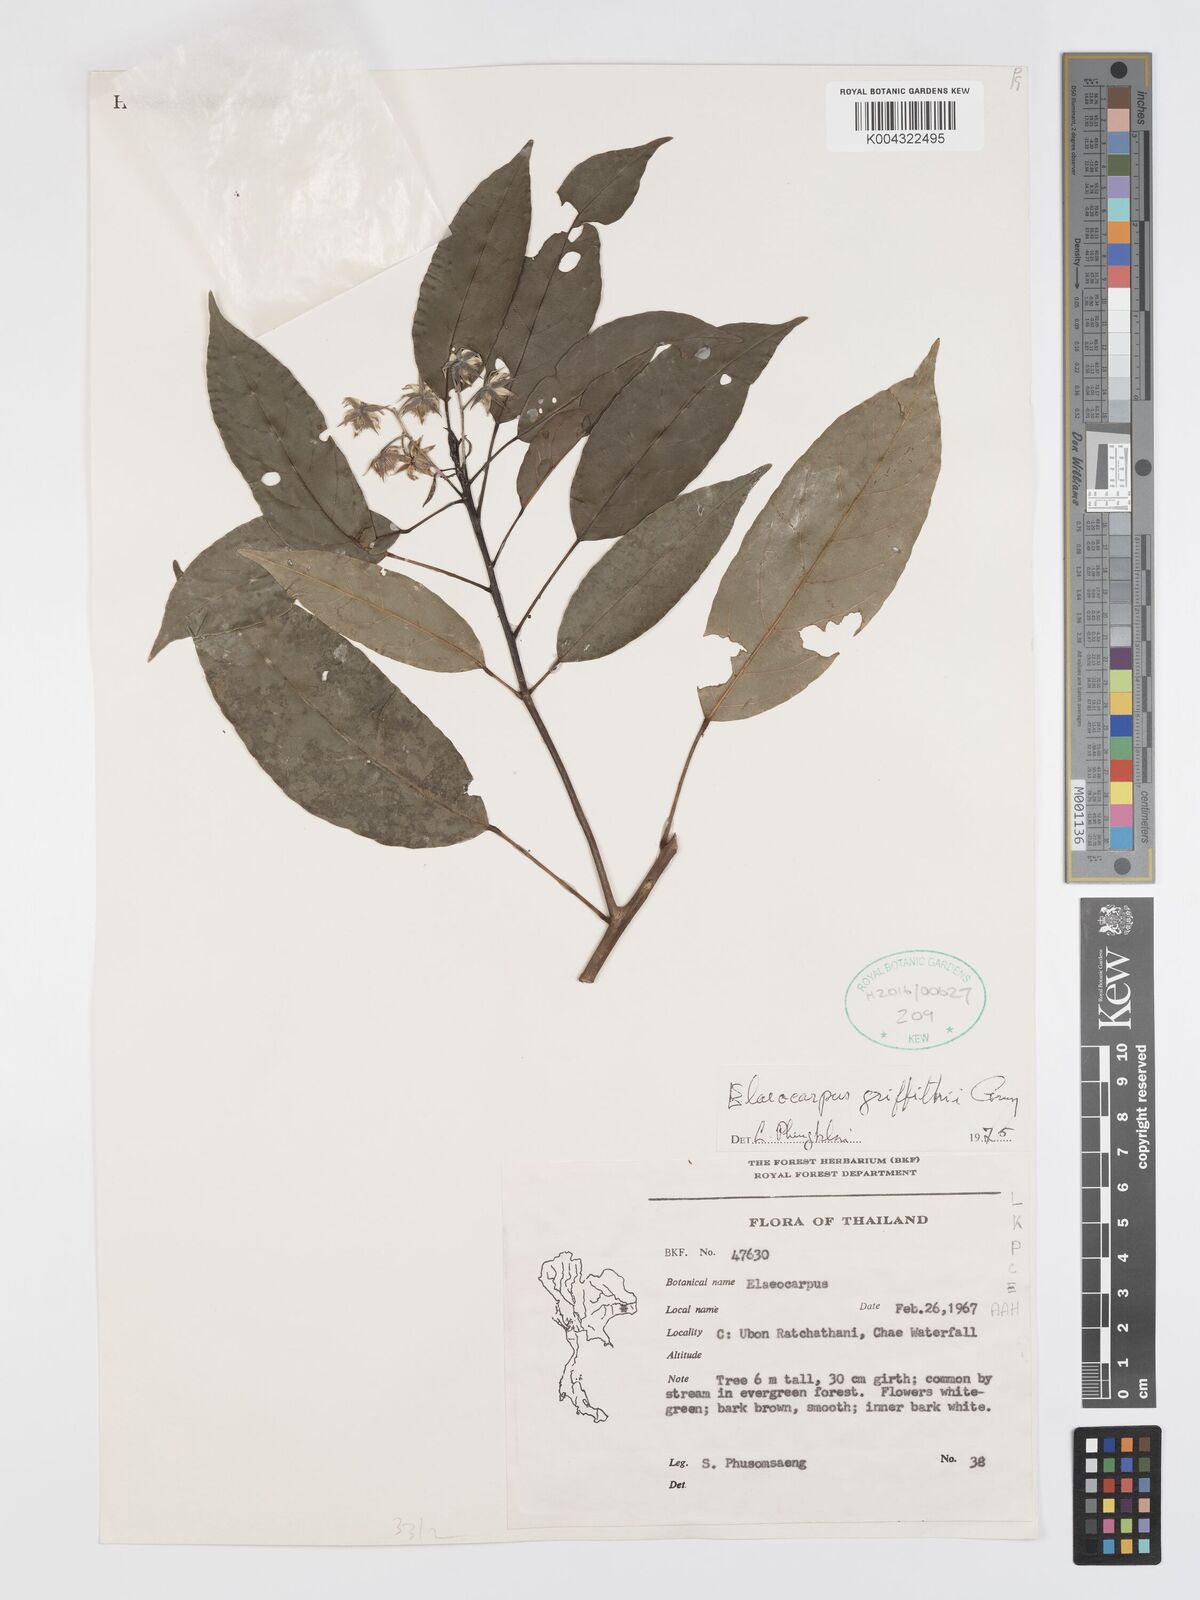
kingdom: Plantae
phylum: Tracheophyta
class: Magnoliopsida
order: Oxalidales
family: Elaeocarpaceae
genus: Elaeocarpus
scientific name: Elaeocarpus griffithii
